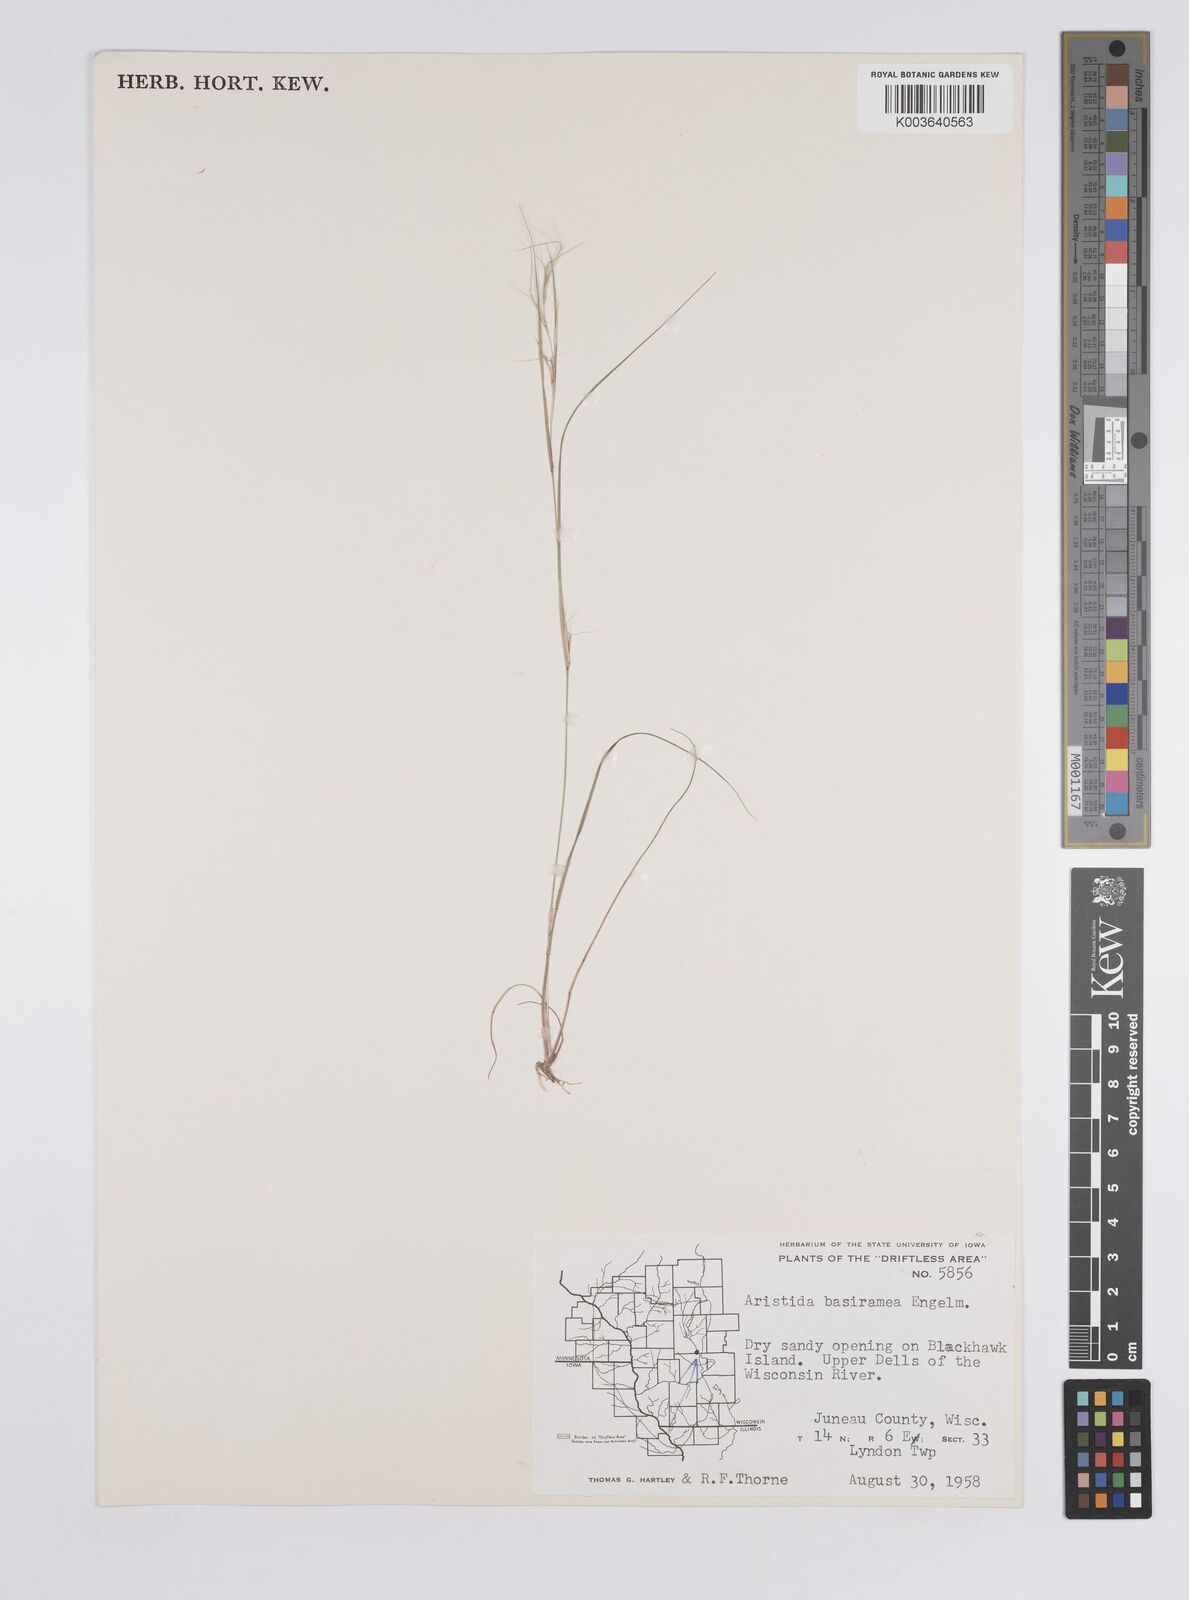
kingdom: Plantae
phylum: Tracheophyta
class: Liliopsida
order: Poales
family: Poaceae
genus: Aristida
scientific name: Aristida basiramea
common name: Forked three-awned grass
